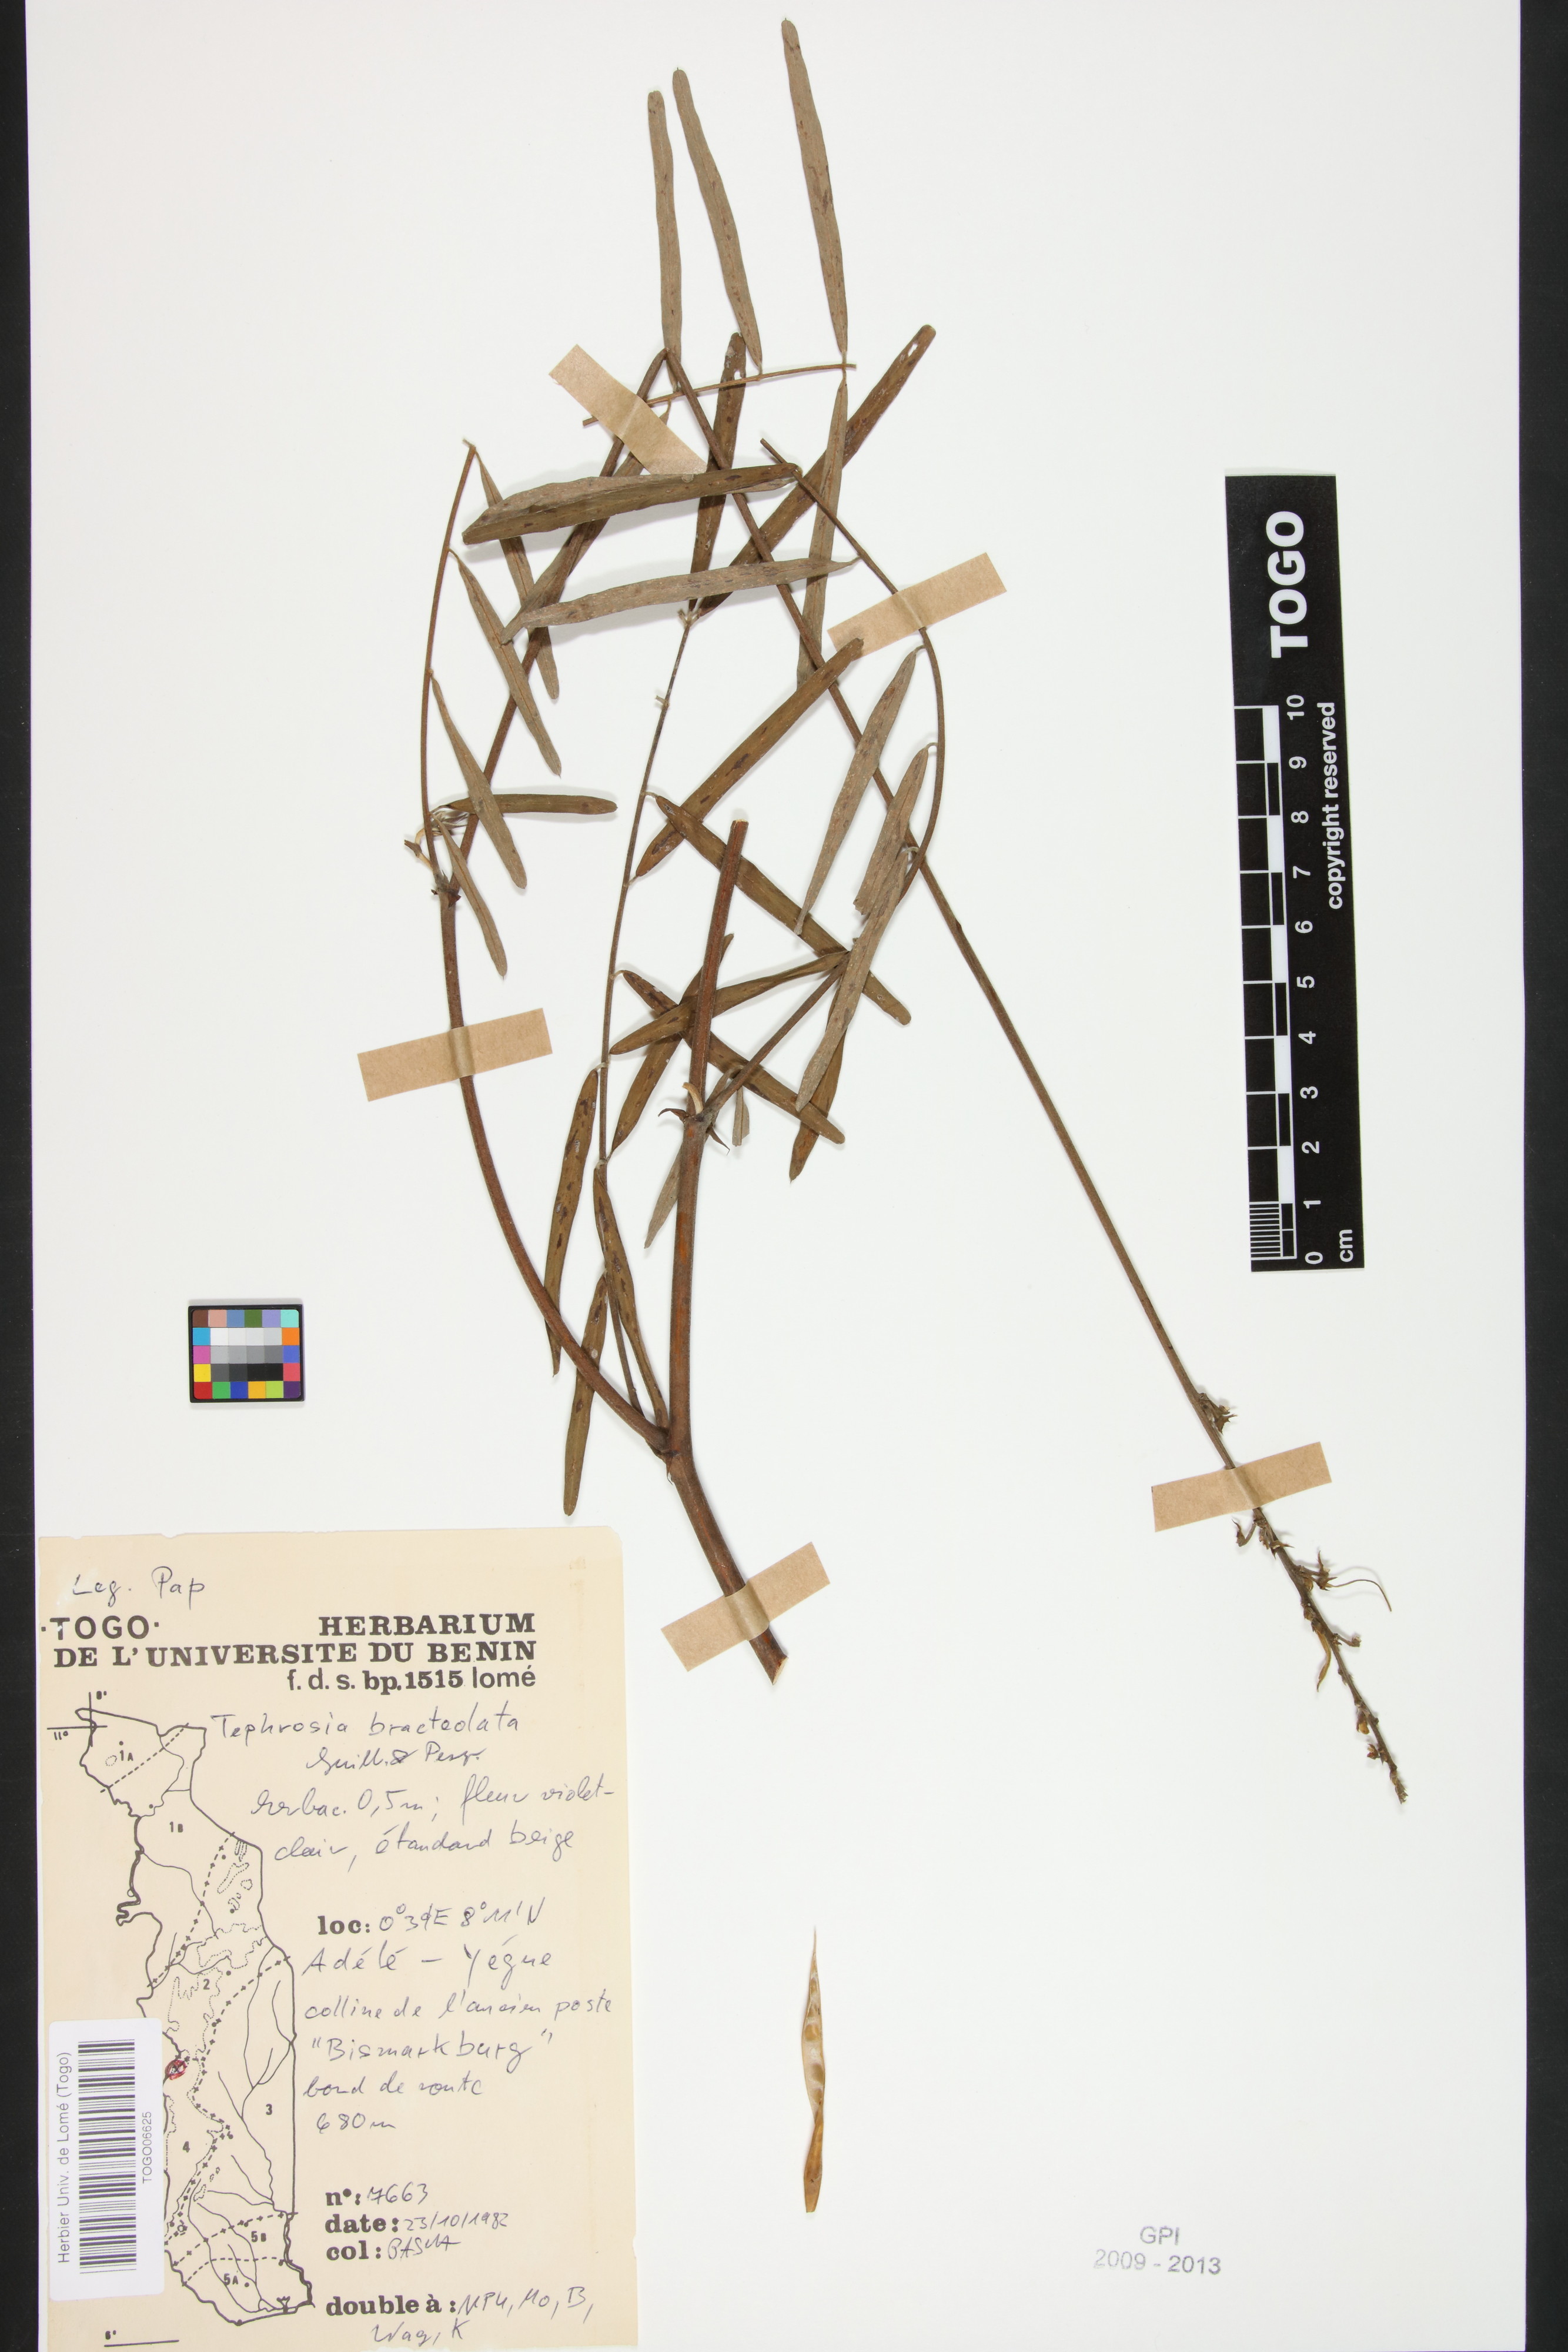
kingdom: Plantae
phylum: Tracheophyta
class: Magnoliopsida
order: Fabales
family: Fabaceae
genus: Tephrosia
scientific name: Tephrosia bracteolata
